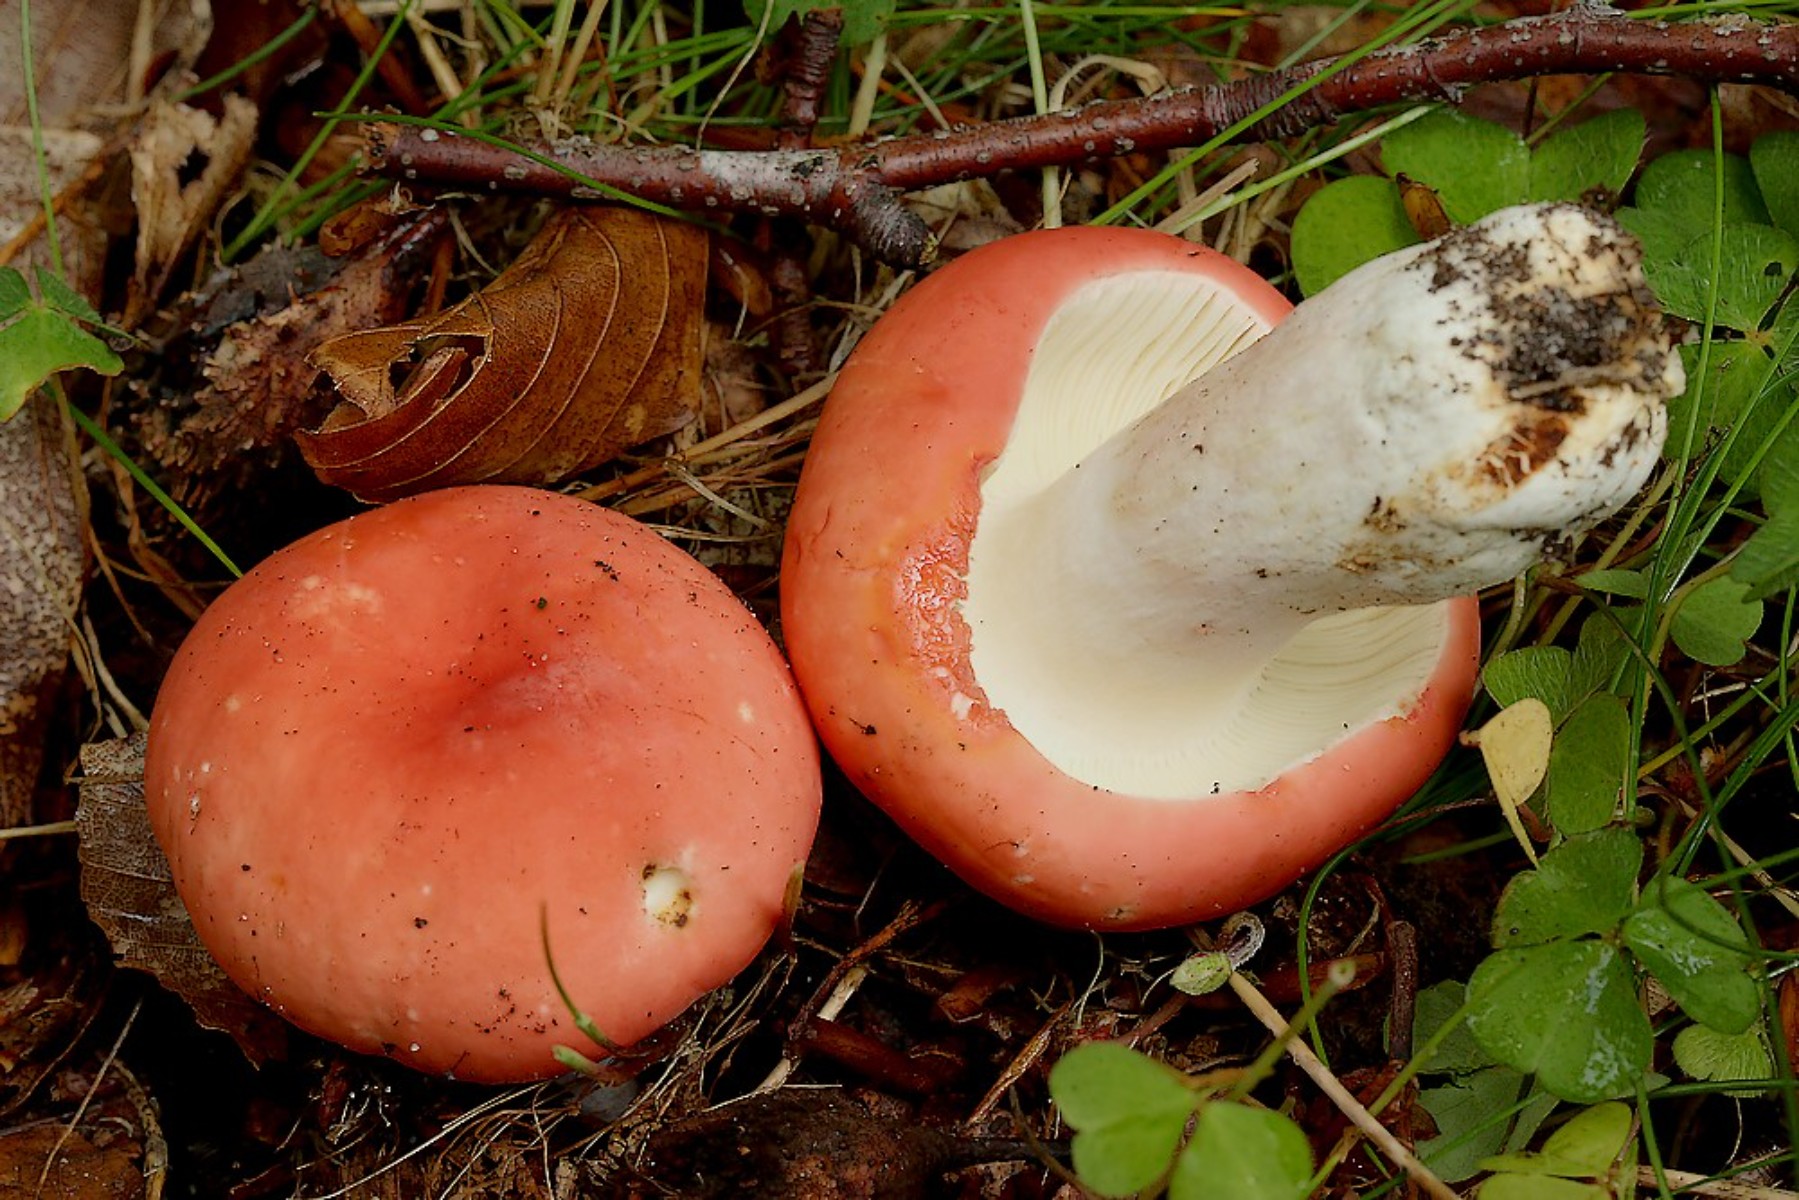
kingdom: Fungi
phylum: Basidiomycota
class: Agaricomycetes
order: Russulales
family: Russulaceae
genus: Russula
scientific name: Russula rosea
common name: fastkødet skørhat
